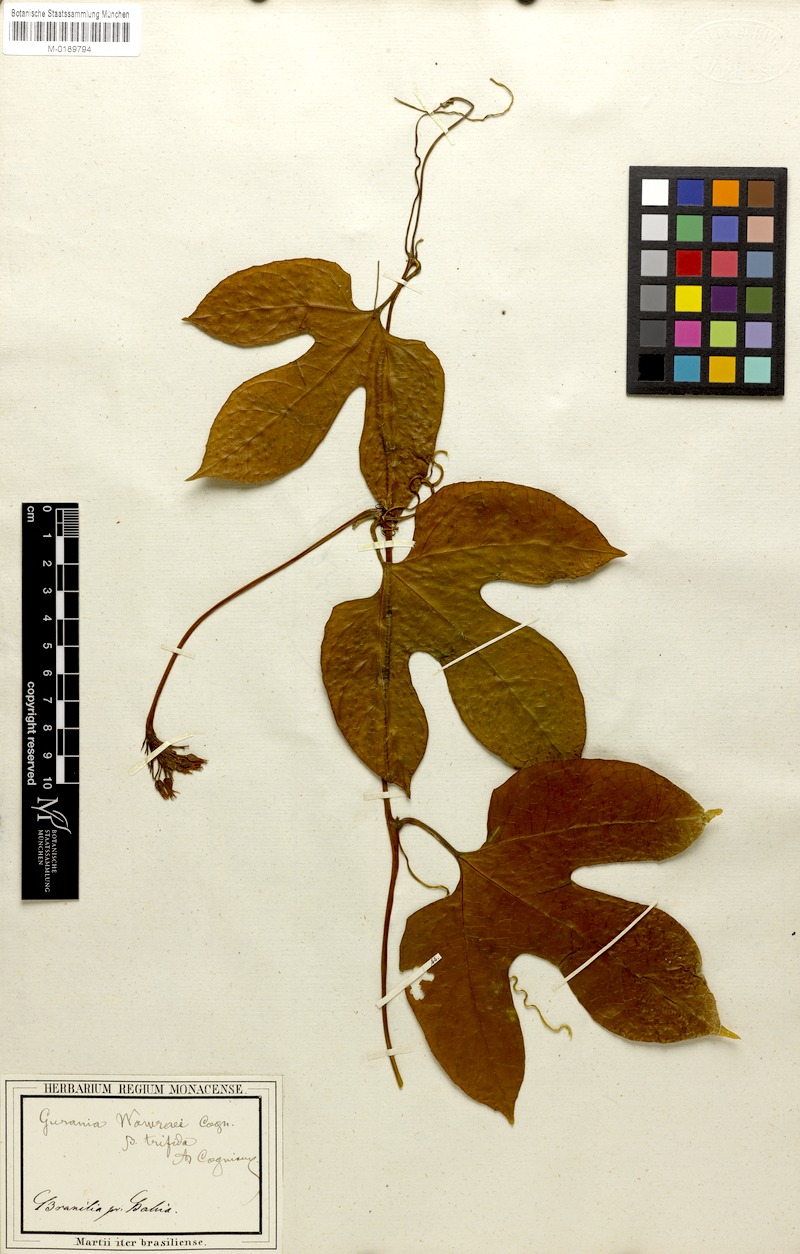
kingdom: Plantae
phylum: Tracheophyta
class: Magnoliopsida
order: Cucurbitales
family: Cucurbitaceae
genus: Gurania
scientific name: Gurania wawrae
